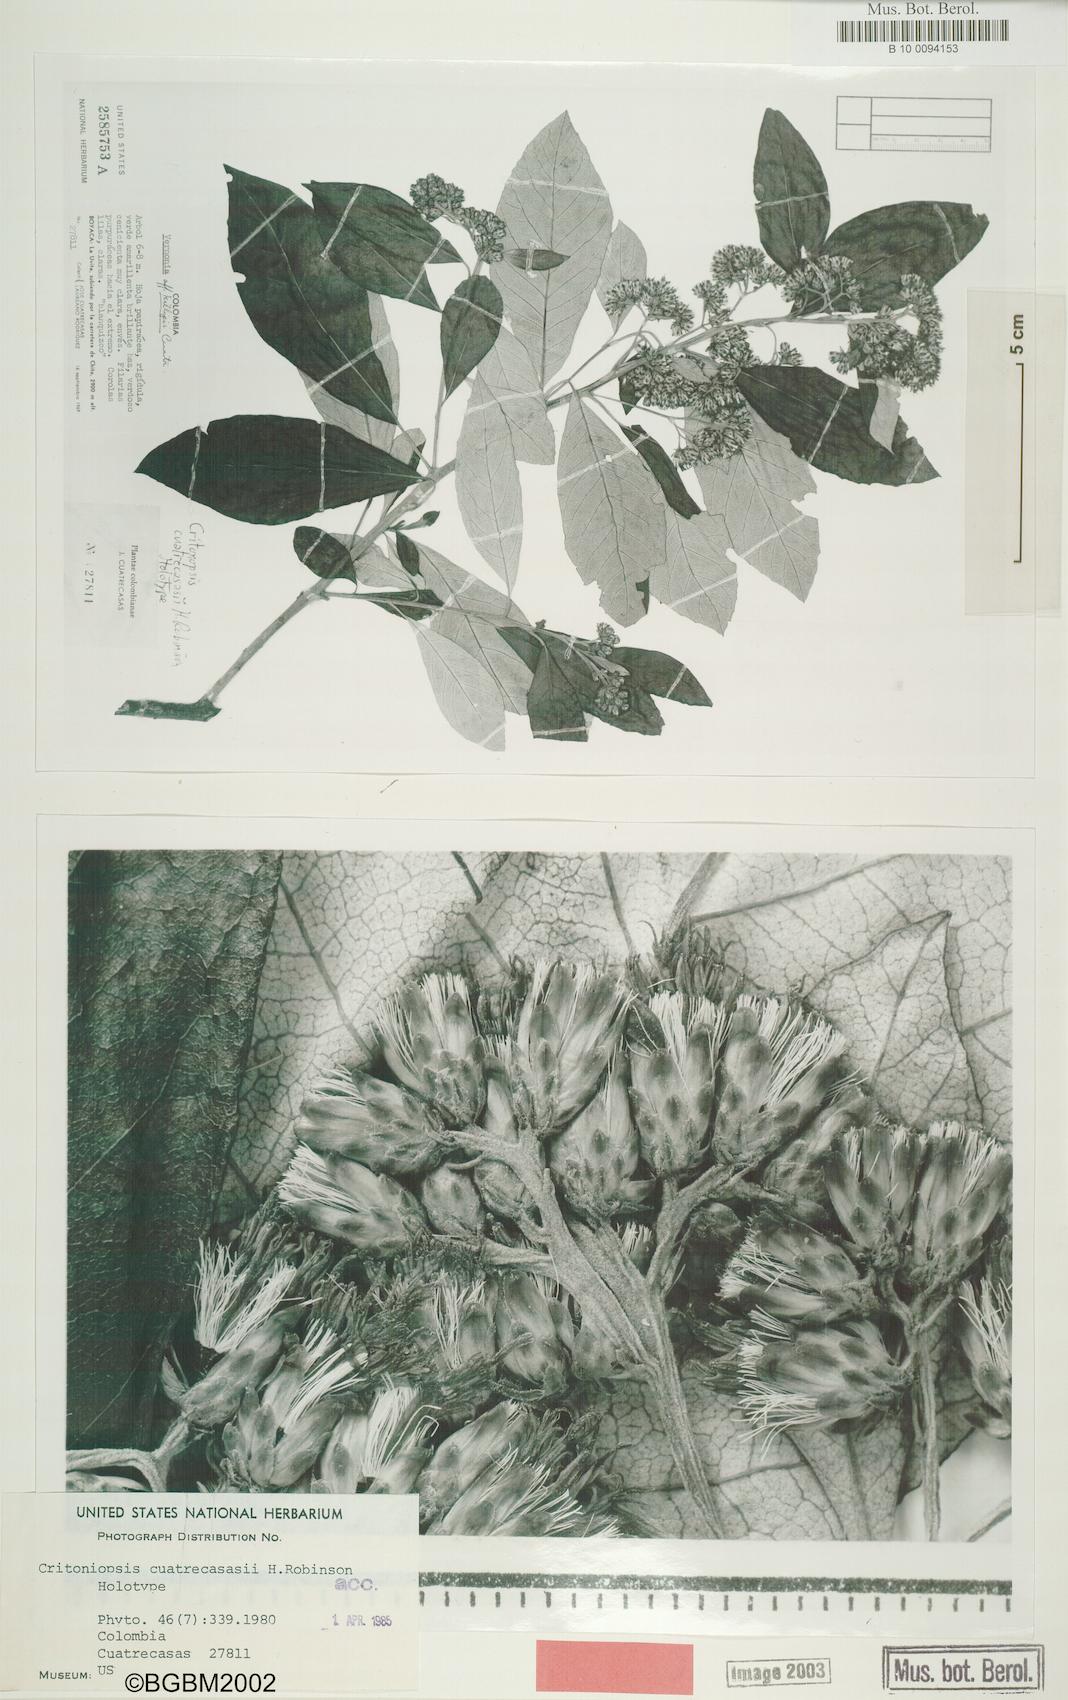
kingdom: Plantae
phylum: Tracheophyta
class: Magnoliopsida
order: Asterales
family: Asteraceae
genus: Critoniopsis
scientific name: Critoniopsis cuatrecasasii
